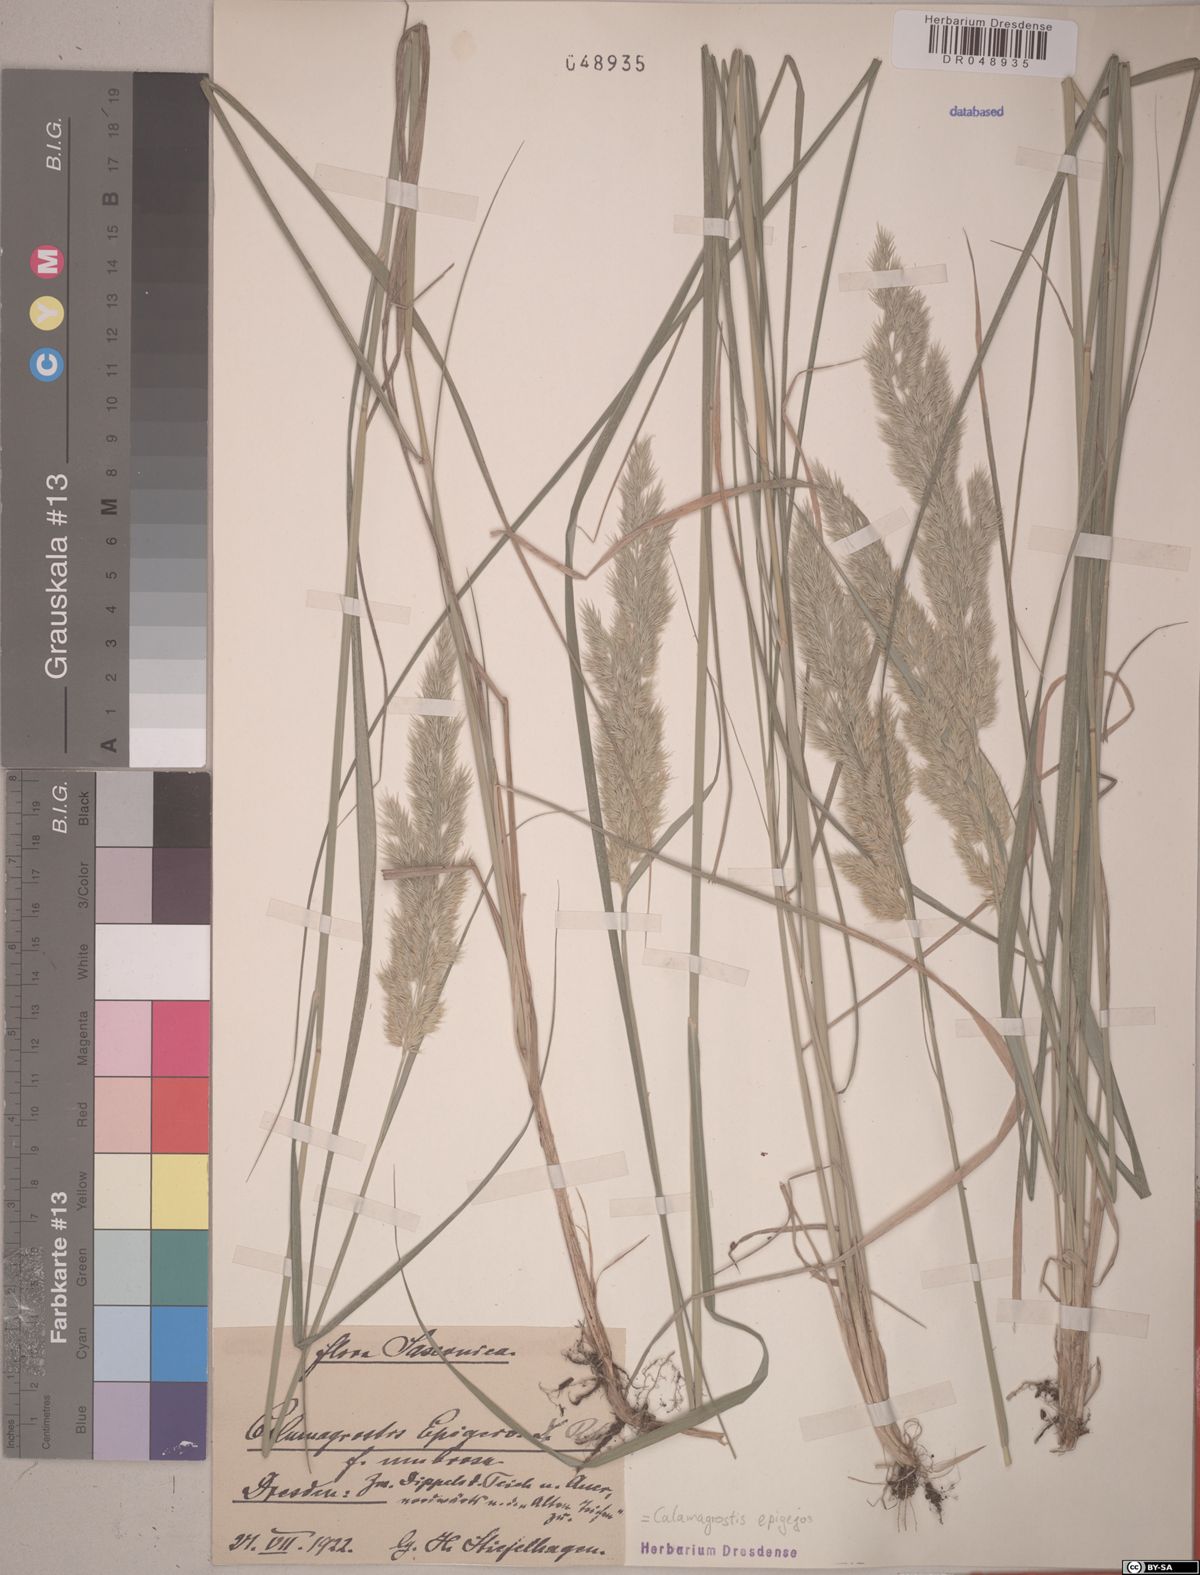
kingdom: Plantae
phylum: Tracheophyta
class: Liliopsida
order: Poales
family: Poaceae
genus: Calamagrostis
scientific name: Calamagrostis epigejos
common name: Wood small-reed
